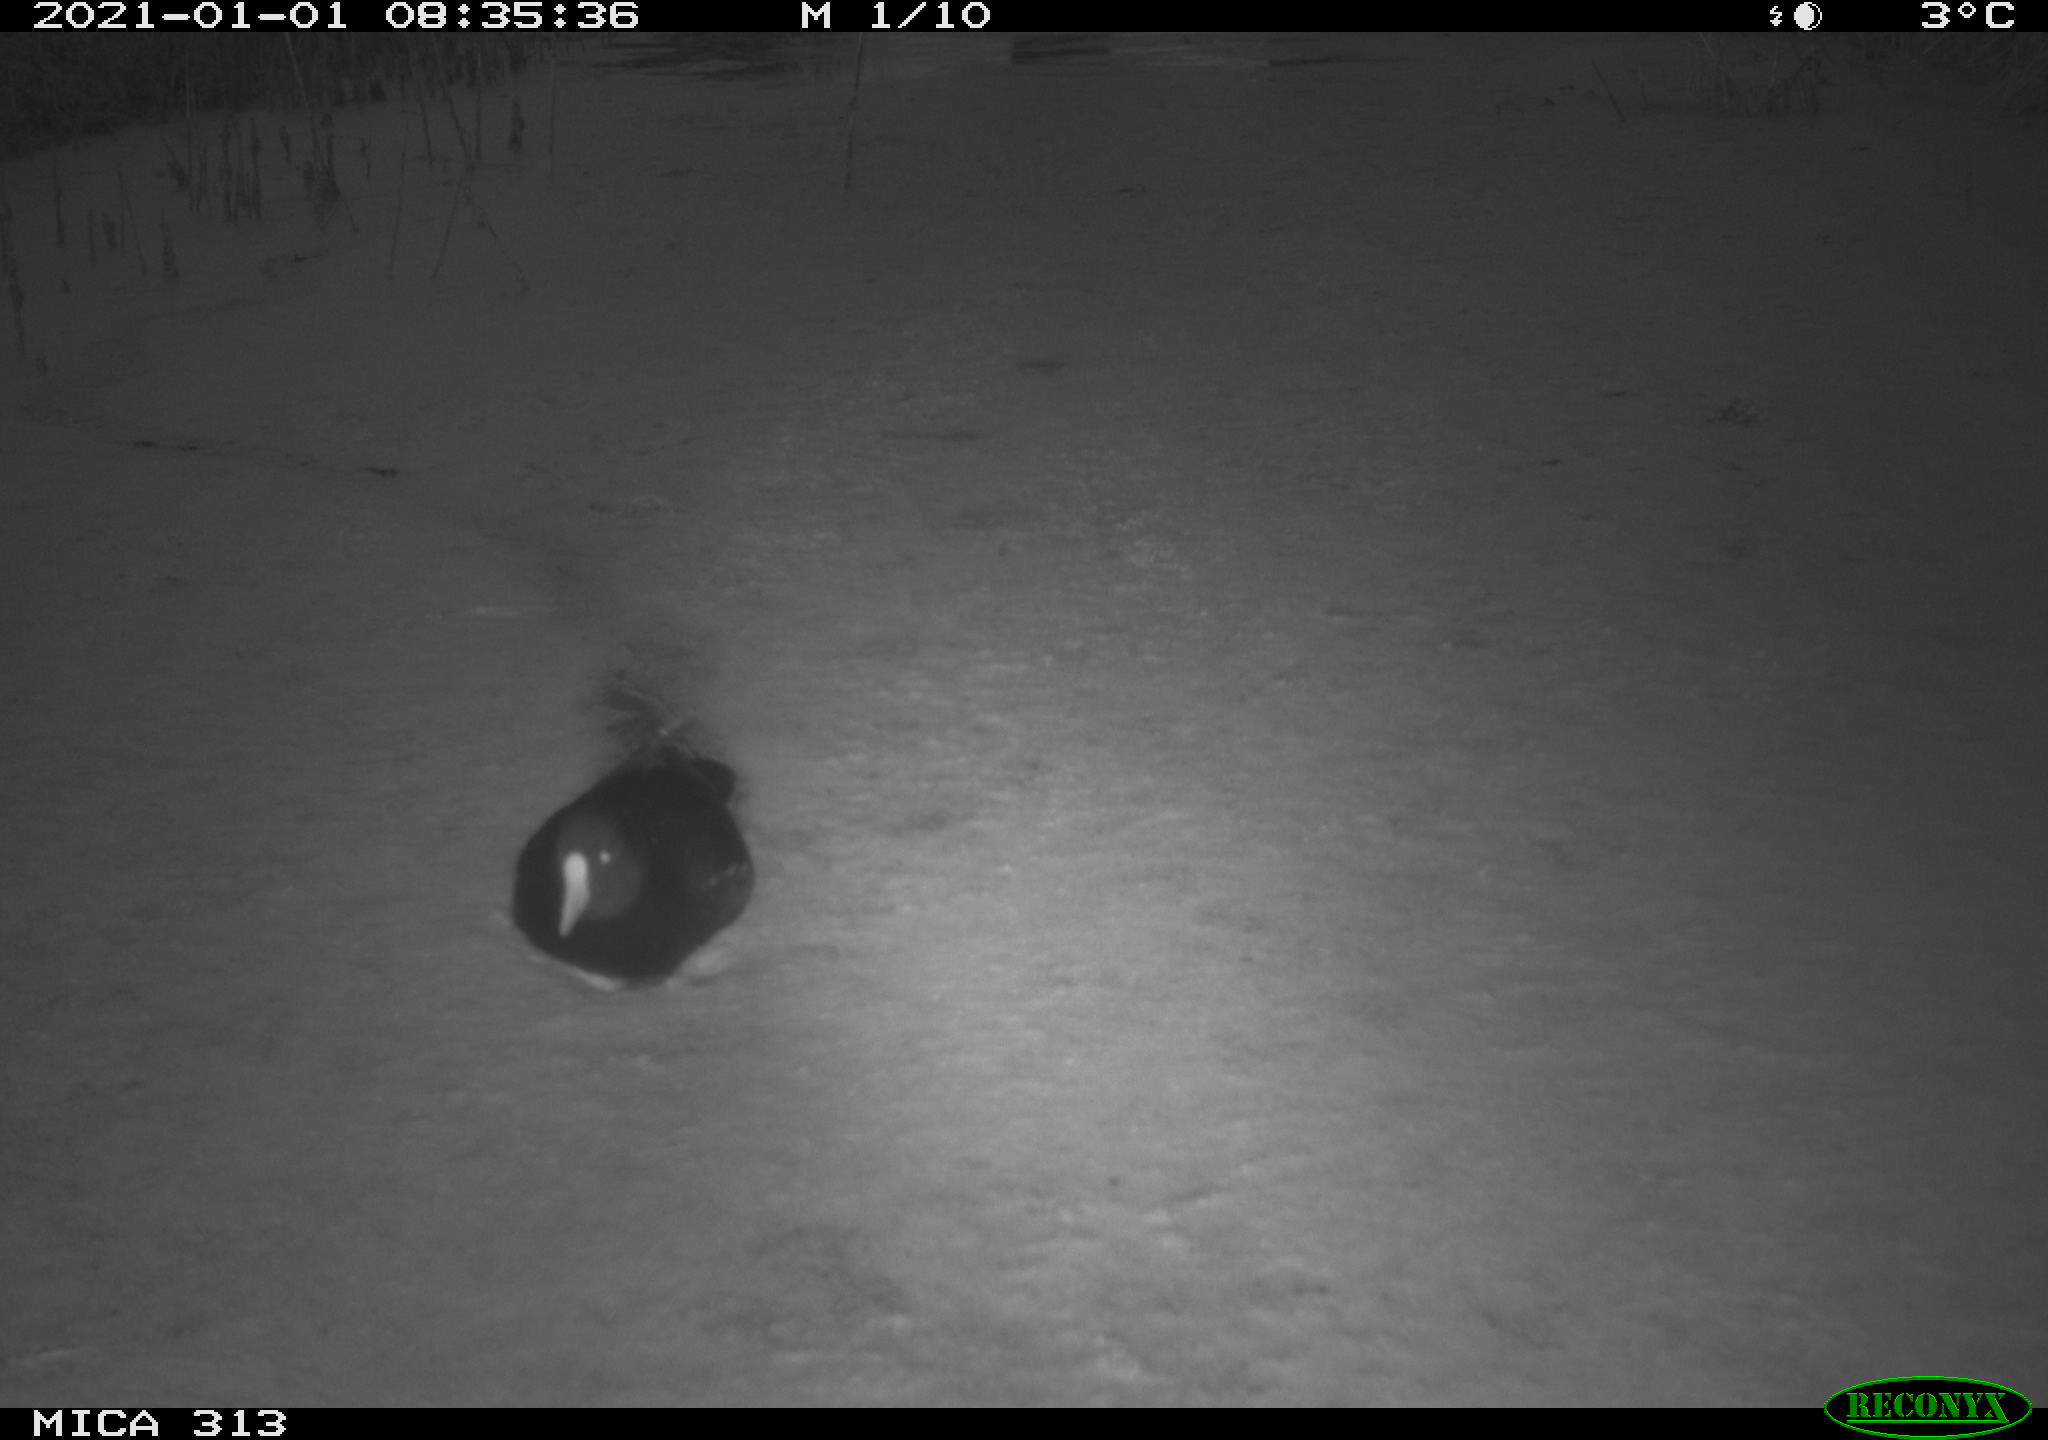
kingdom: Animalia
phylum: Chordata
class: Aves
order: Gruiformes
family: Rallidae
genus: Fulica
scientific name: Fulica atra
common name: Eurasian coot
